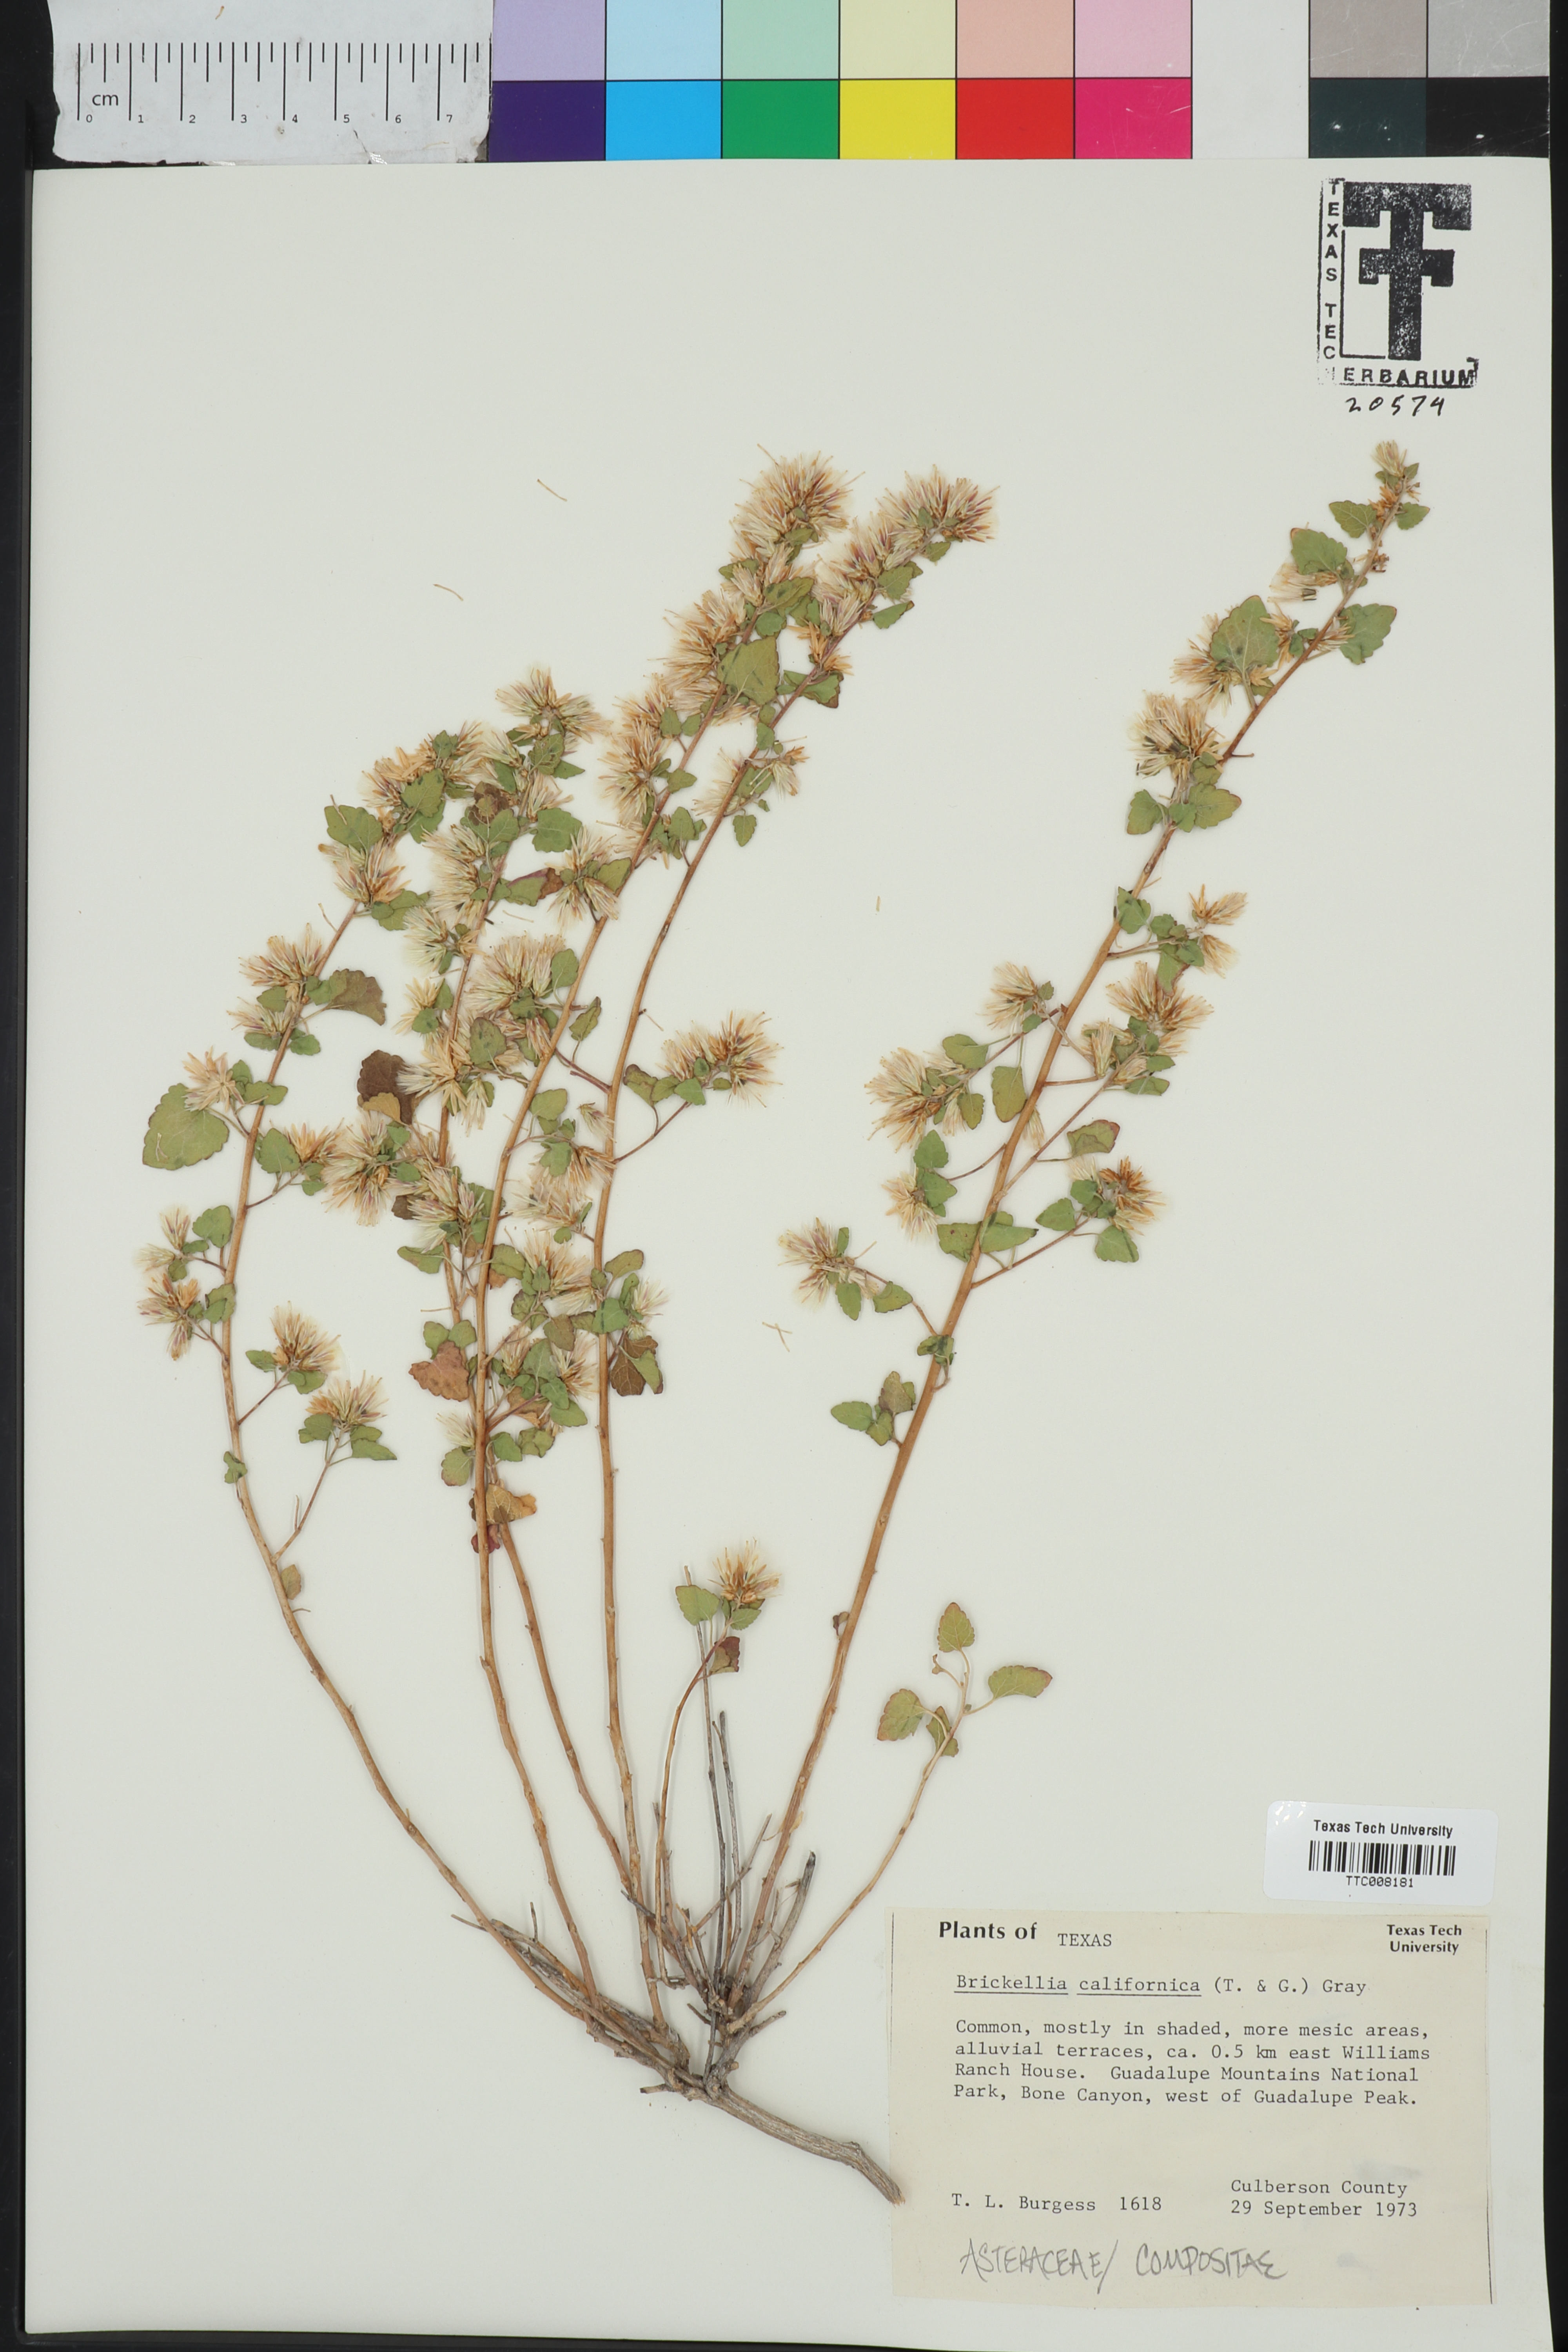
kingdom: Plantae
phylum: Tracheophyta
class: Magnoliopsida
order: Asterales
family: Asteraceae
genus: Brickellia
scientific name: Brickellia californica
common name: California brickellbush
